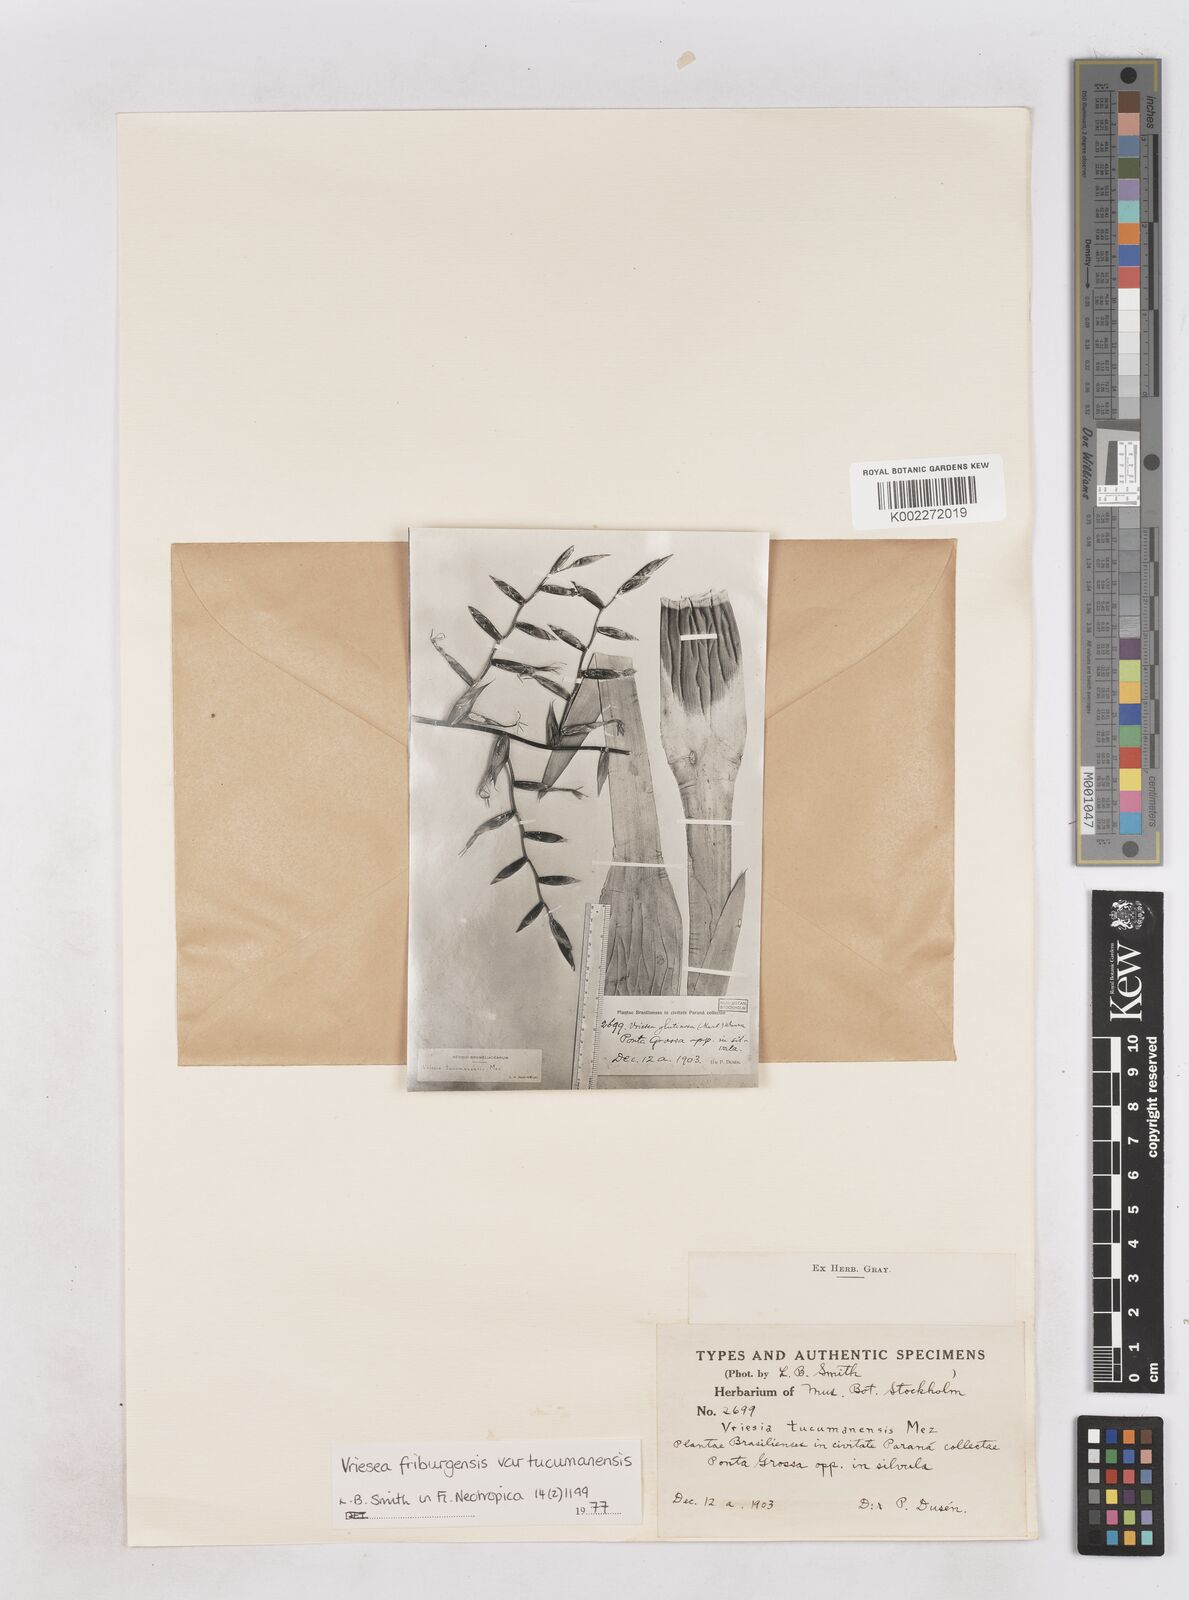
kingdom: Plantae
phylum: Tracheophyta
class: Liliopsida
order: Poales
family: Bromeliaceae
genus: Vriesea
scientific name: Vriesea friburgensis
